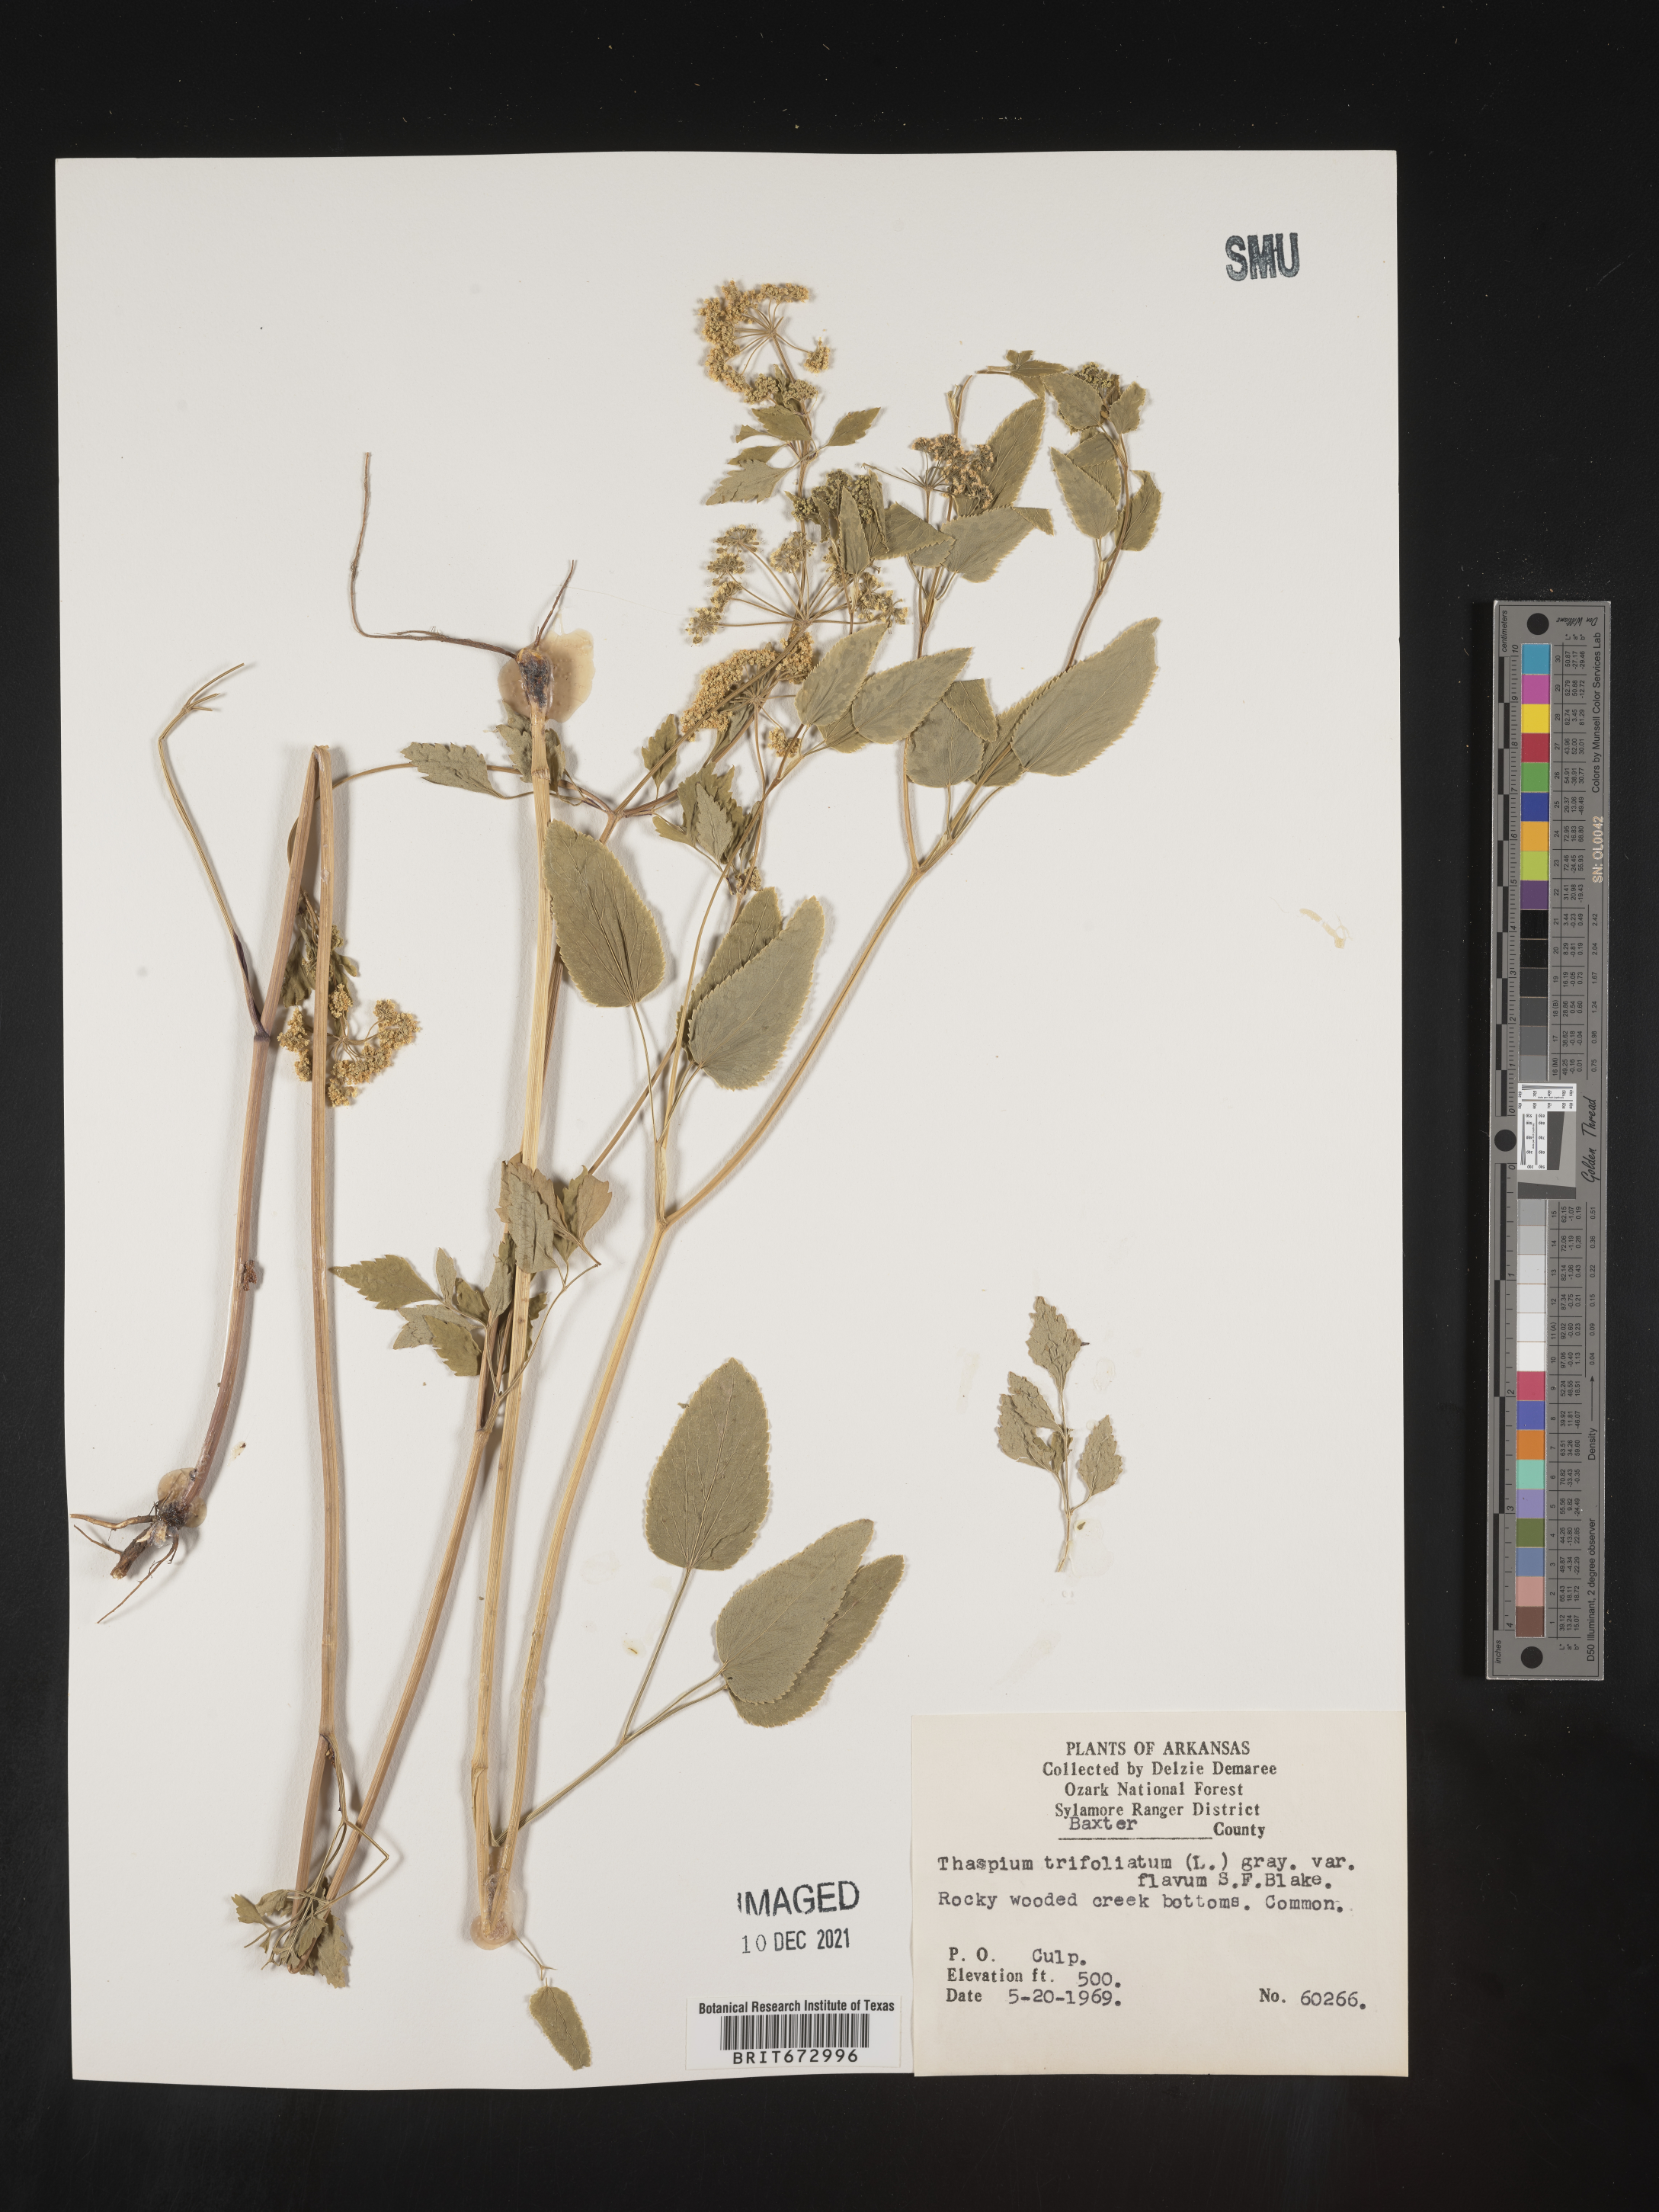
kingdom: Plantae
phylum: Tracheophyta
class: Magnoliopsida
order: Apiales
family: Apiaceae
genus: Thaspium
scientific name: Thaspium
